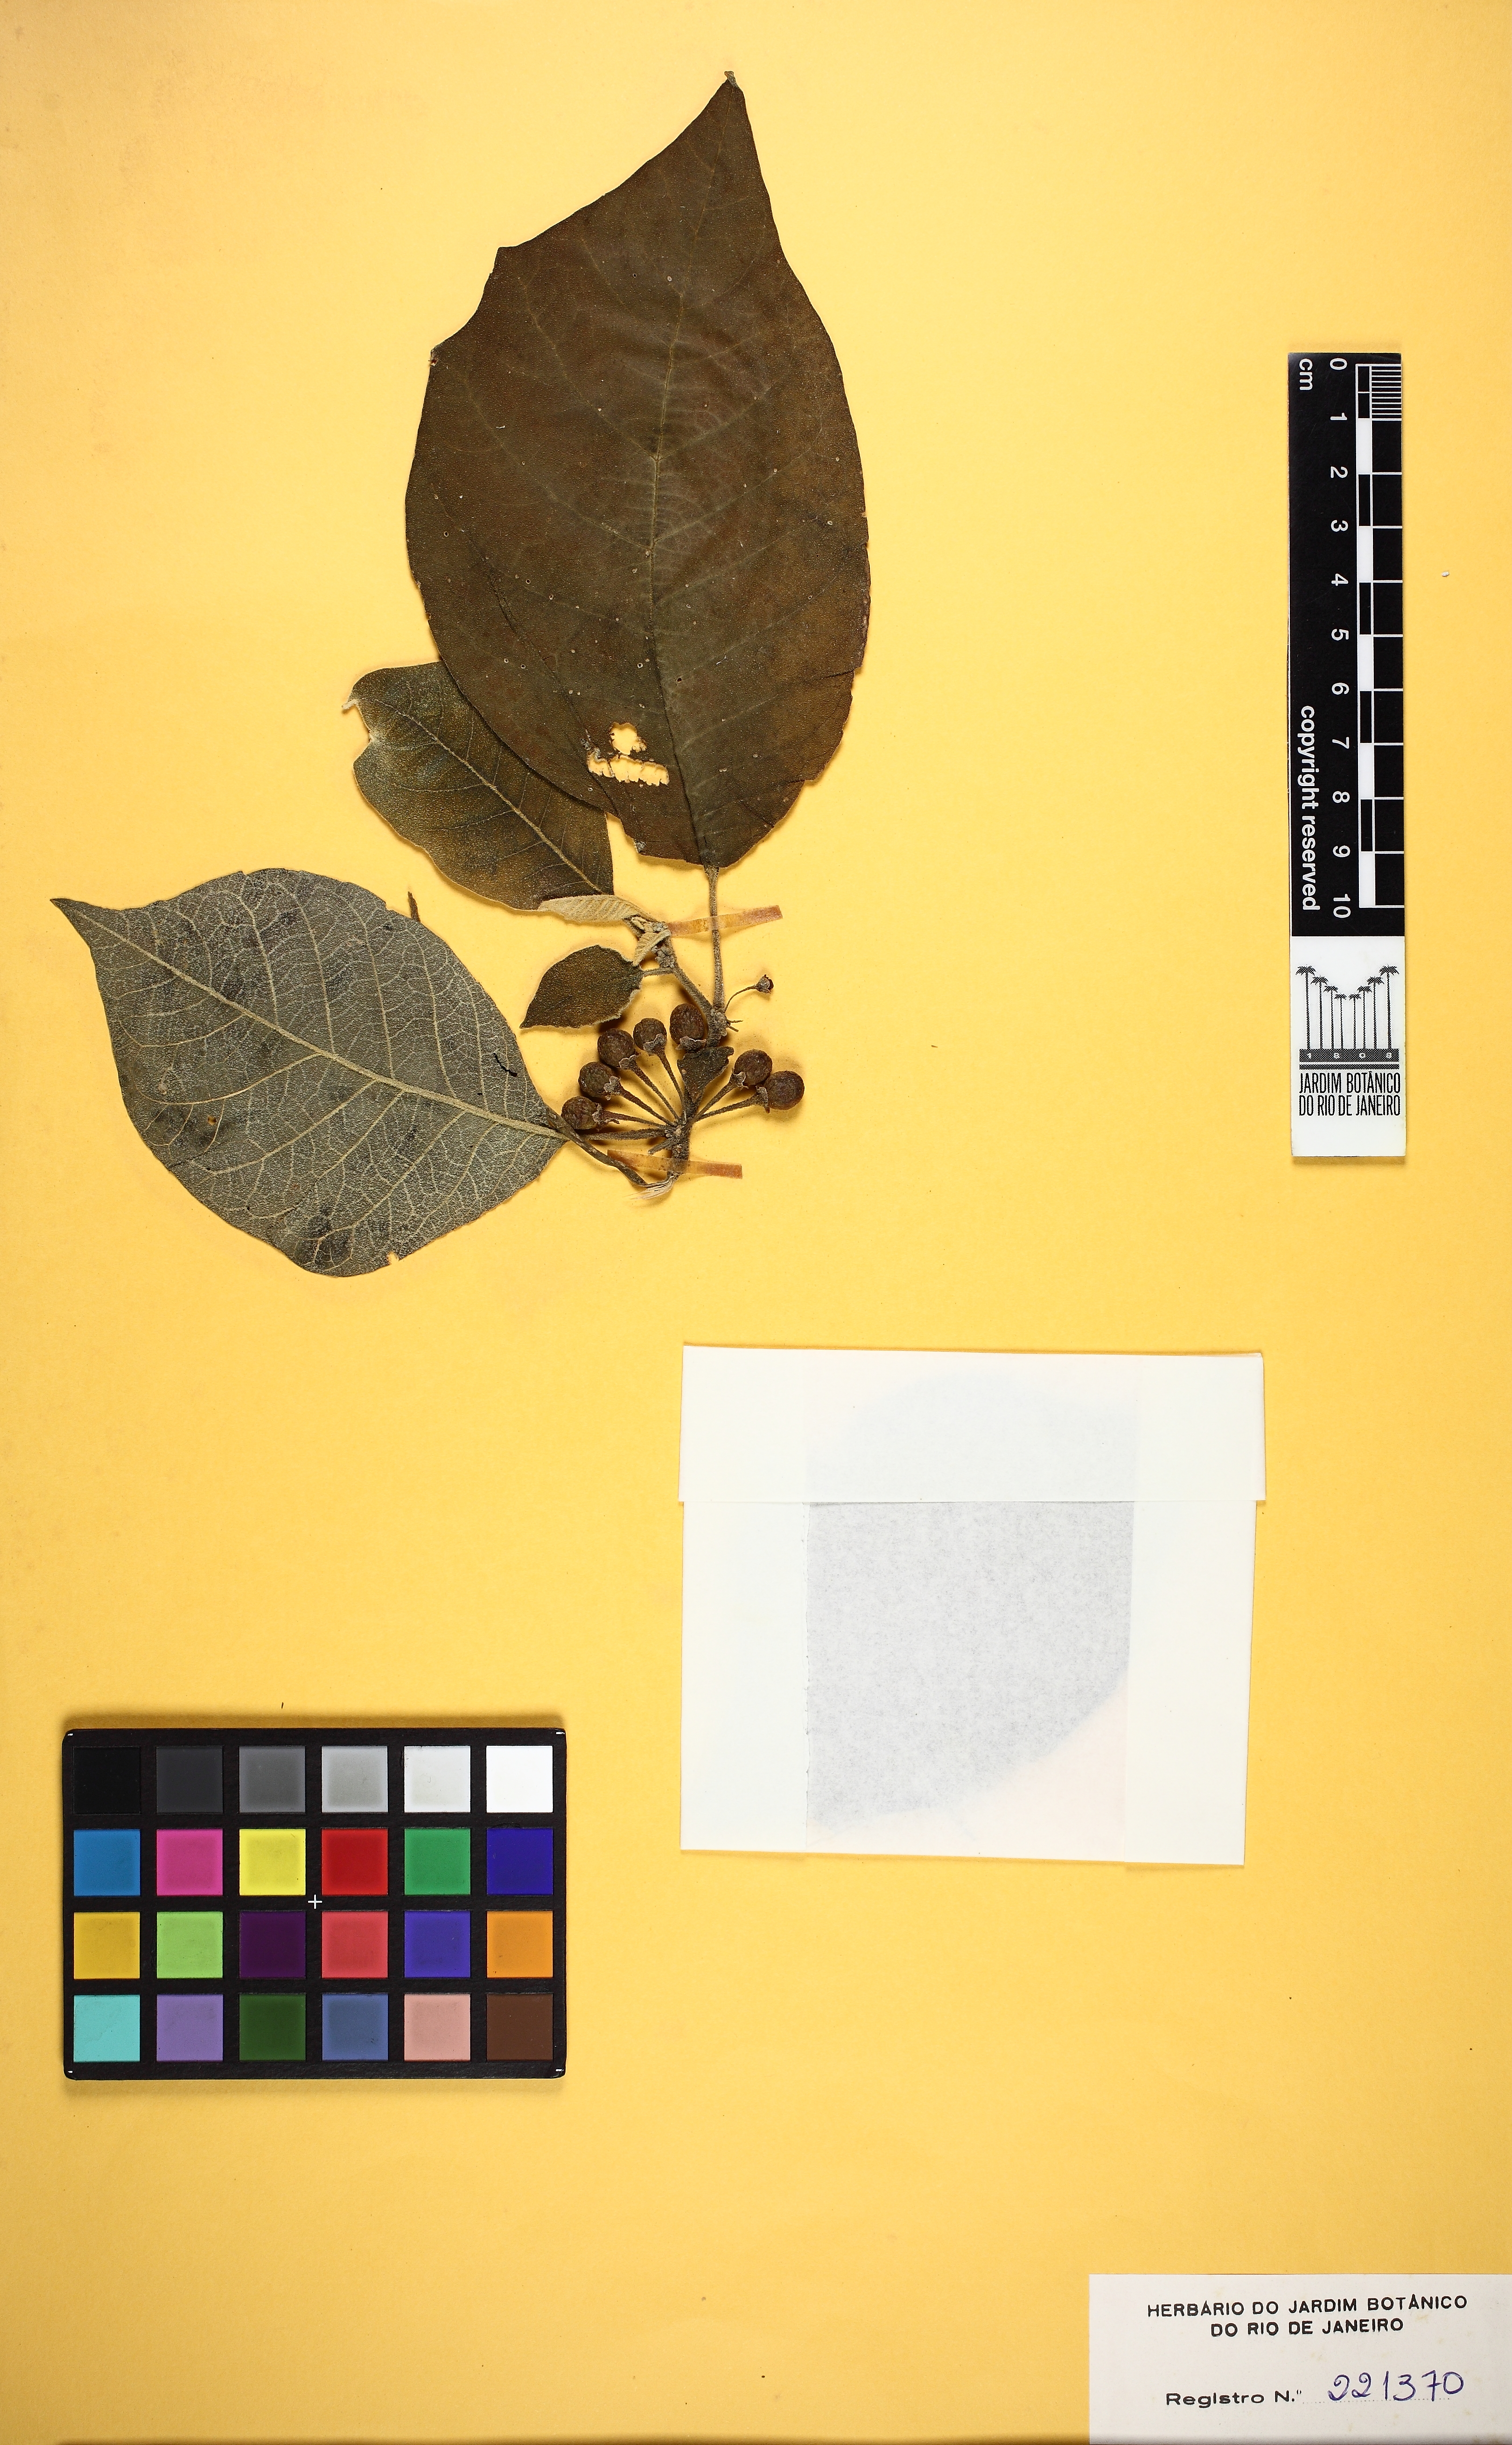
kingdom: Plantae
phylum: Tracheophyta
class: Magnoliopsida
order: Solanales
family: Solanaceae
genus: Saracha
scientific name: Saracha nigribaccata
